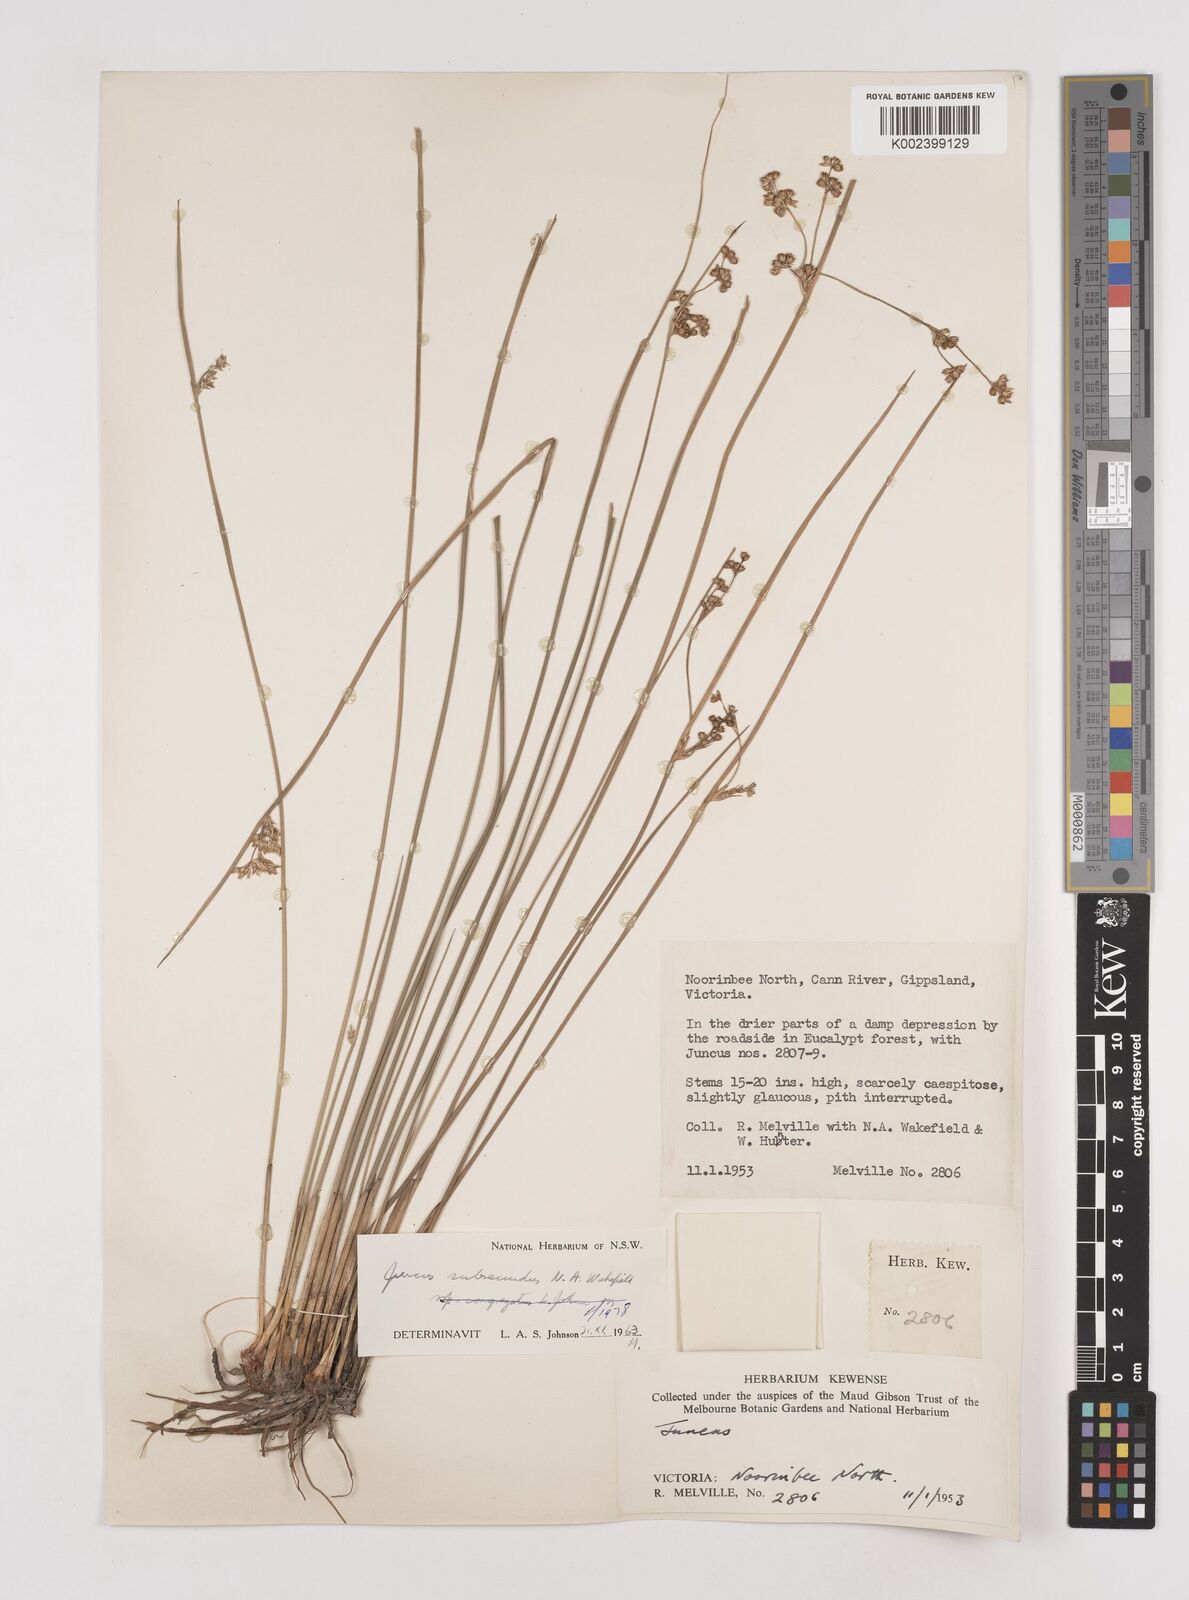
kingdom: Plantae
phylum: Tracheophyta
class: Liliopsida
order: Poales
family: Juncaceae
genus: Juncus
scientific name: Juncus subsecundus
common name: Fingered rush
